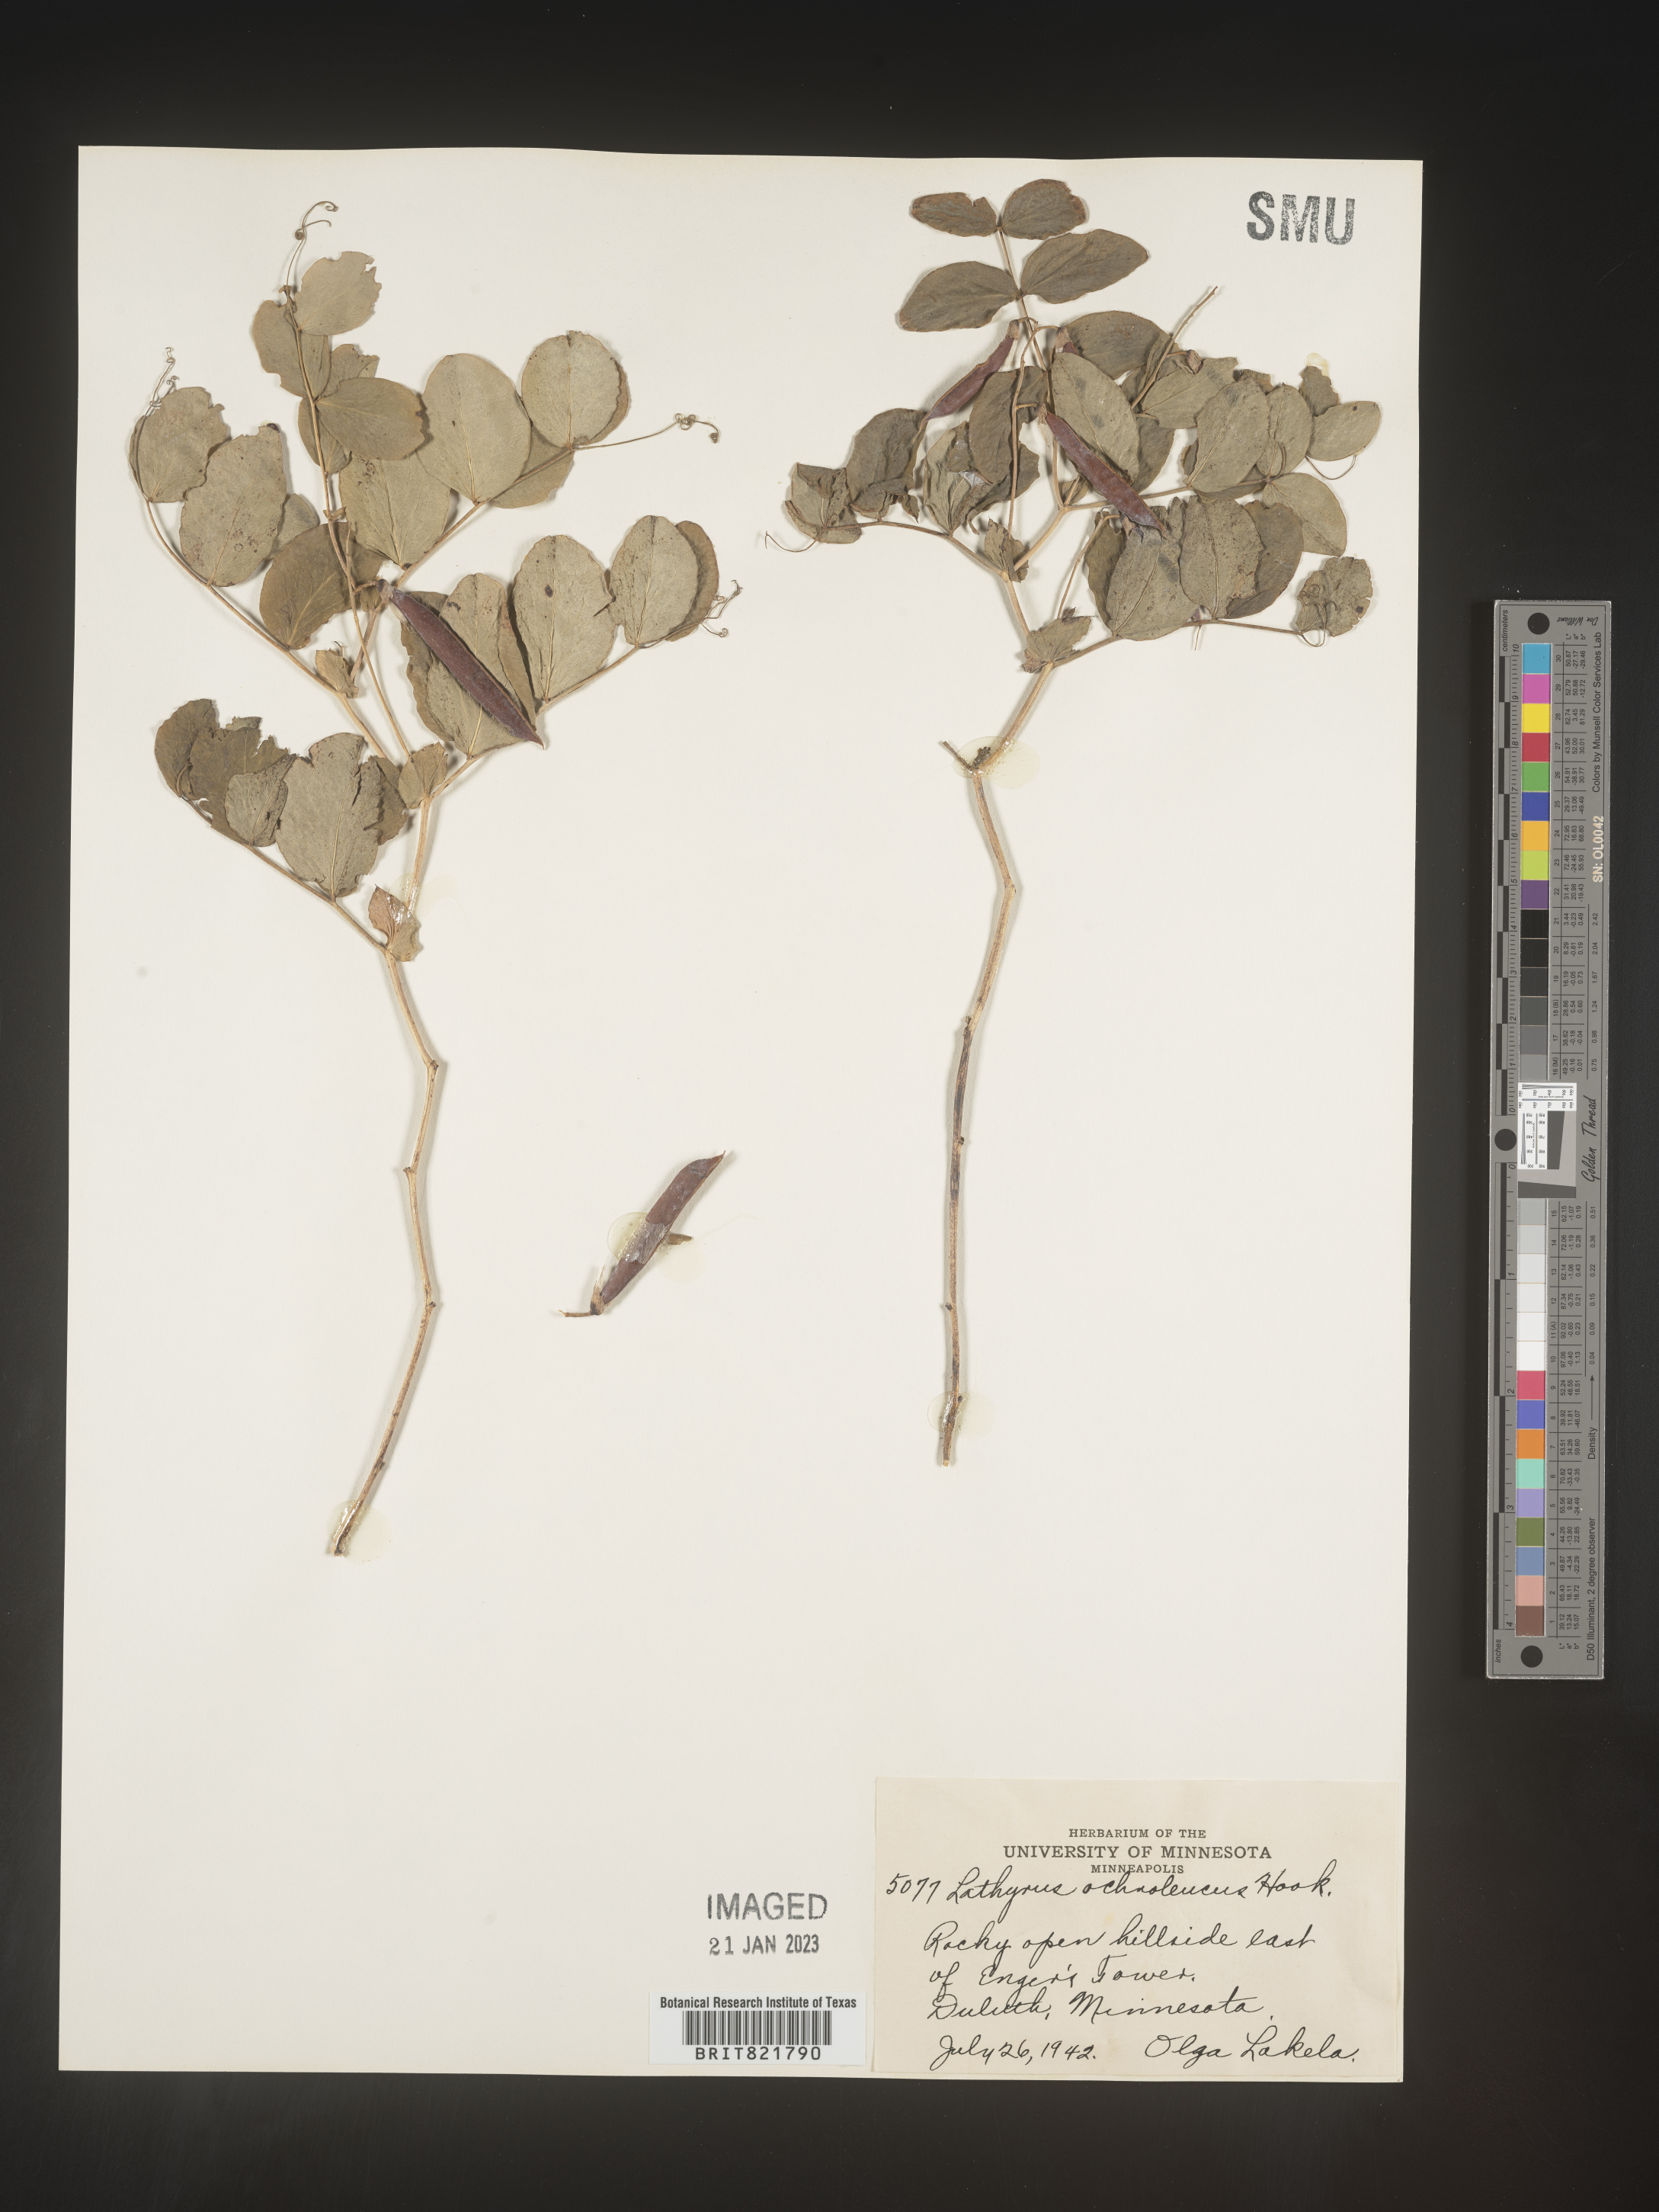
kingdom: Plantae
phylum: Tracheophyta
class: Magnoliopsida
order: Fabales
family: Fabaceae
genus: Lathyrus
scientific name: Lathyrus
